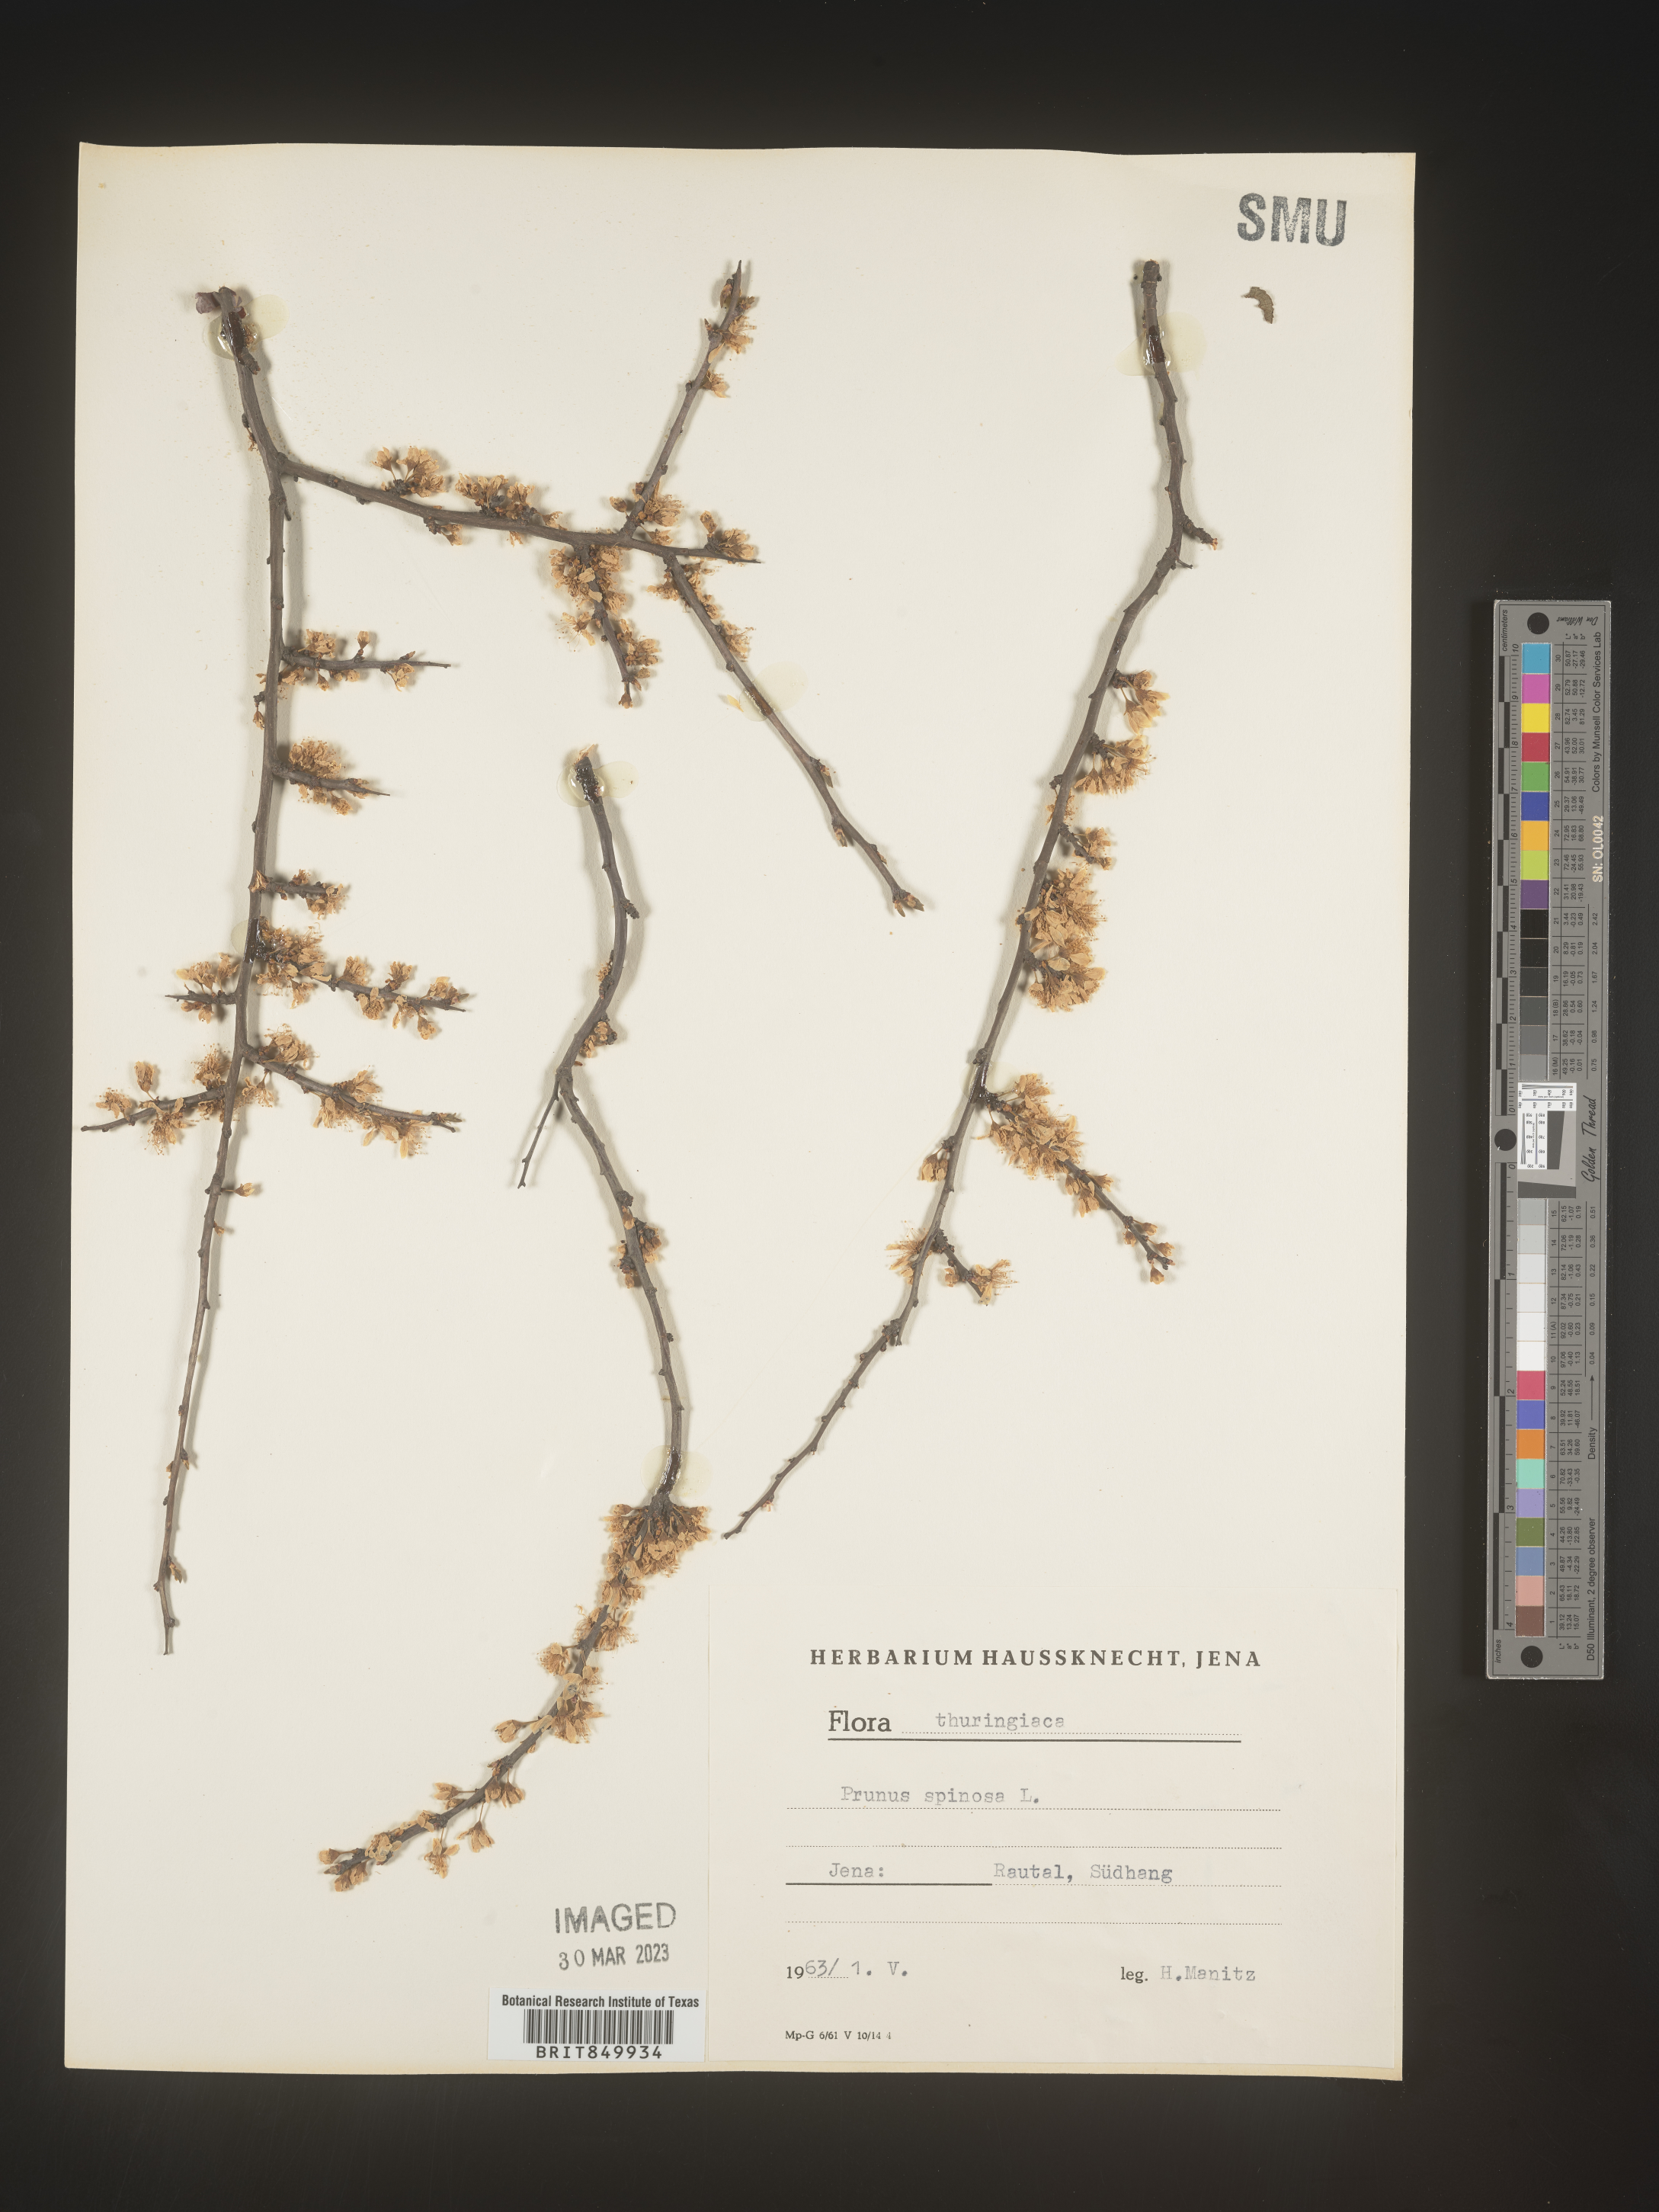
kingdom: Plantae
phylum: Tracheophyta
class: Magnoliopsida
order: Rosales
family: Rosaceae
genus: Pyrus
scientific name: Pyrus
